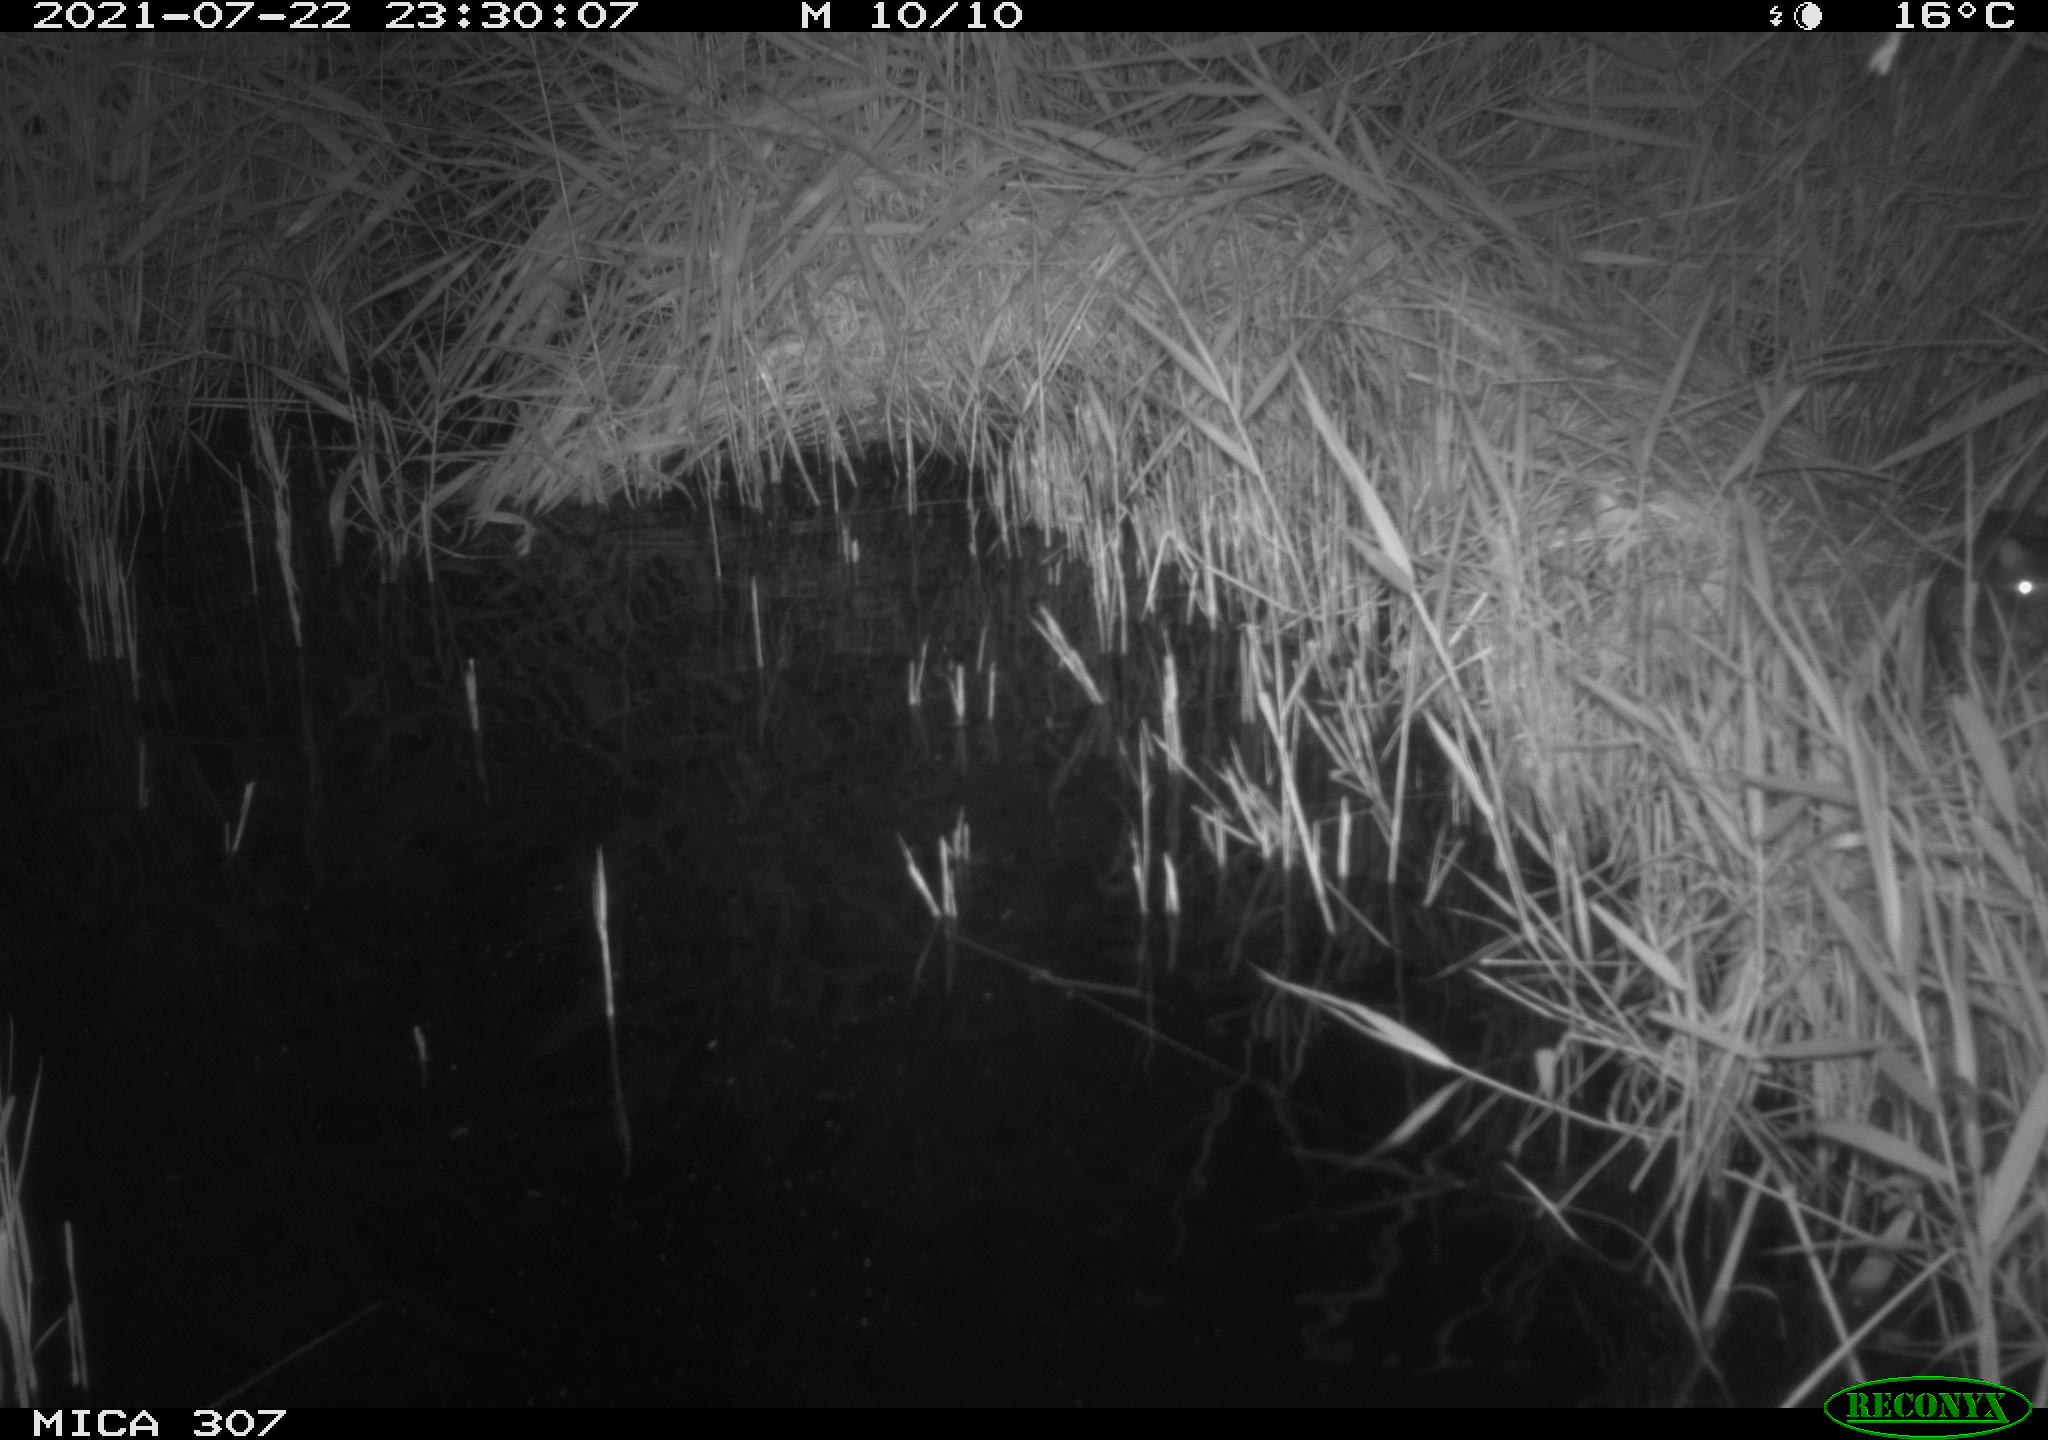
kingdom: Animalia
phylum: Chordata
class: Mammalia
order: Rodentia
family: Muridae
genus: Rattus
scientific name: Rattus norvegicus
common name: Brown rat
